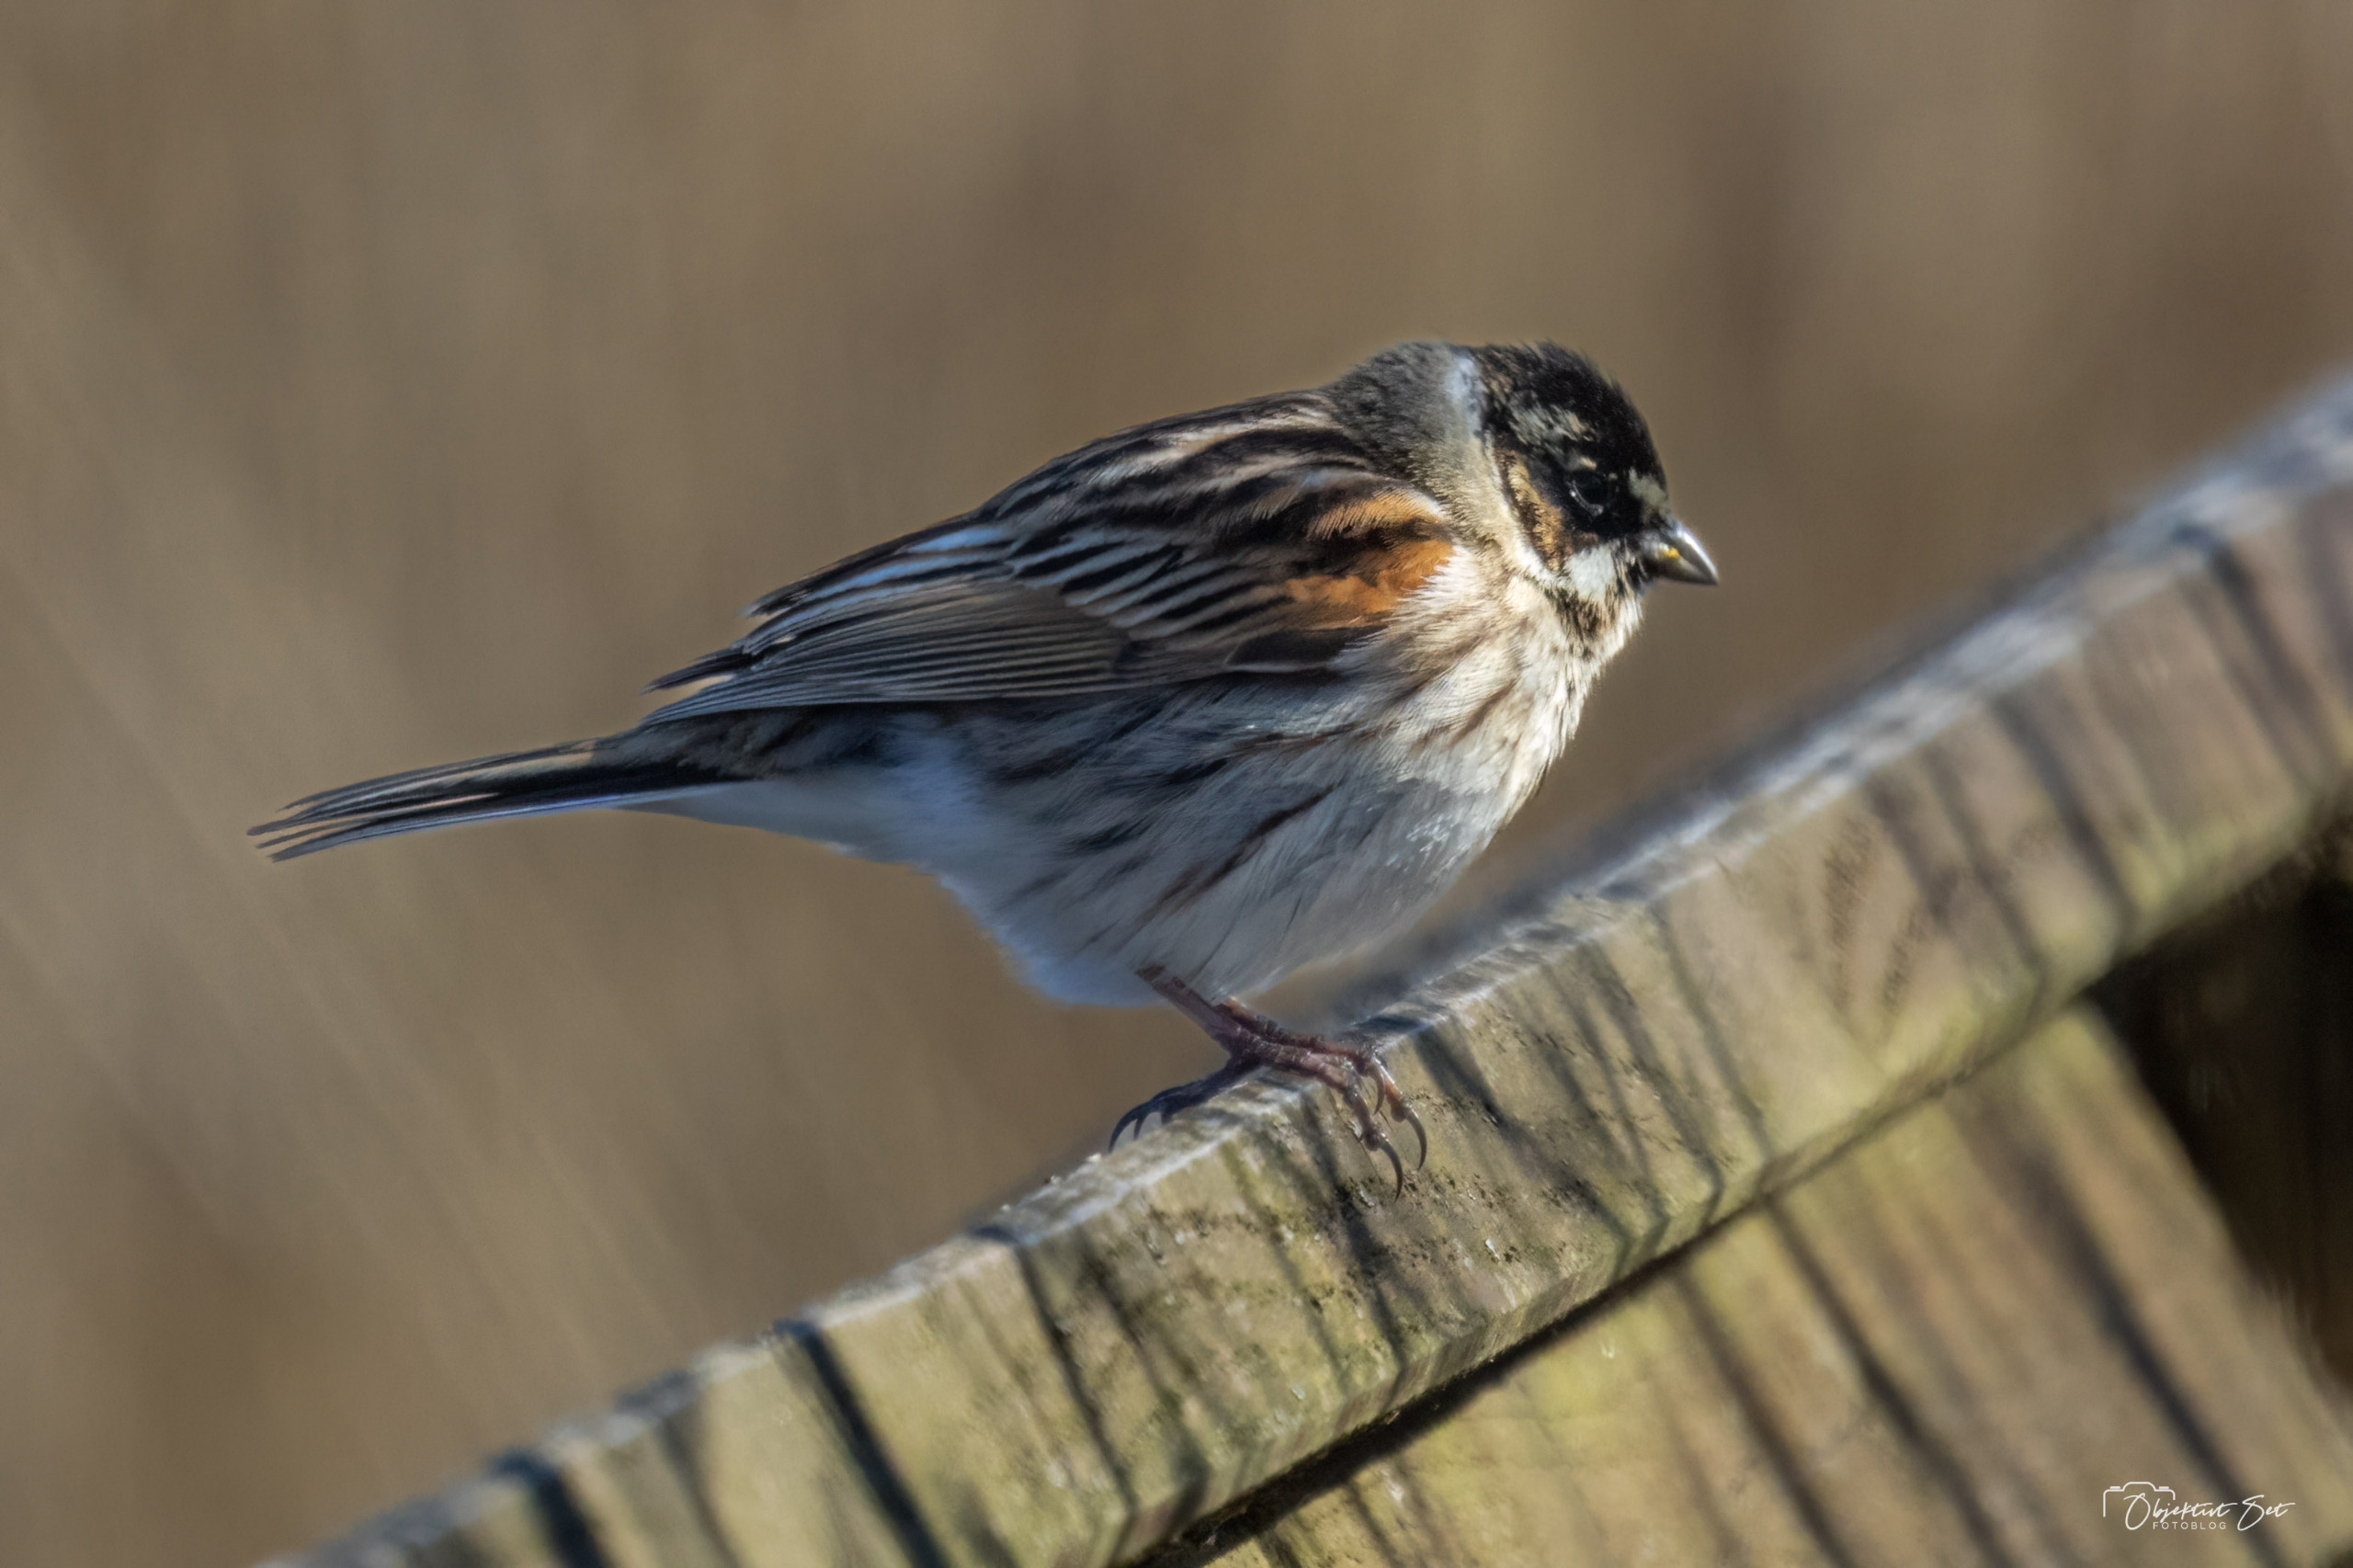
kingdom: Animalia
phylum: Chordata
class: Aves
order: Passeriformes
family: Emberizidae
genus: Emberiza
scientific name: Emberiza schoeniclus
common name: Rørspurv
